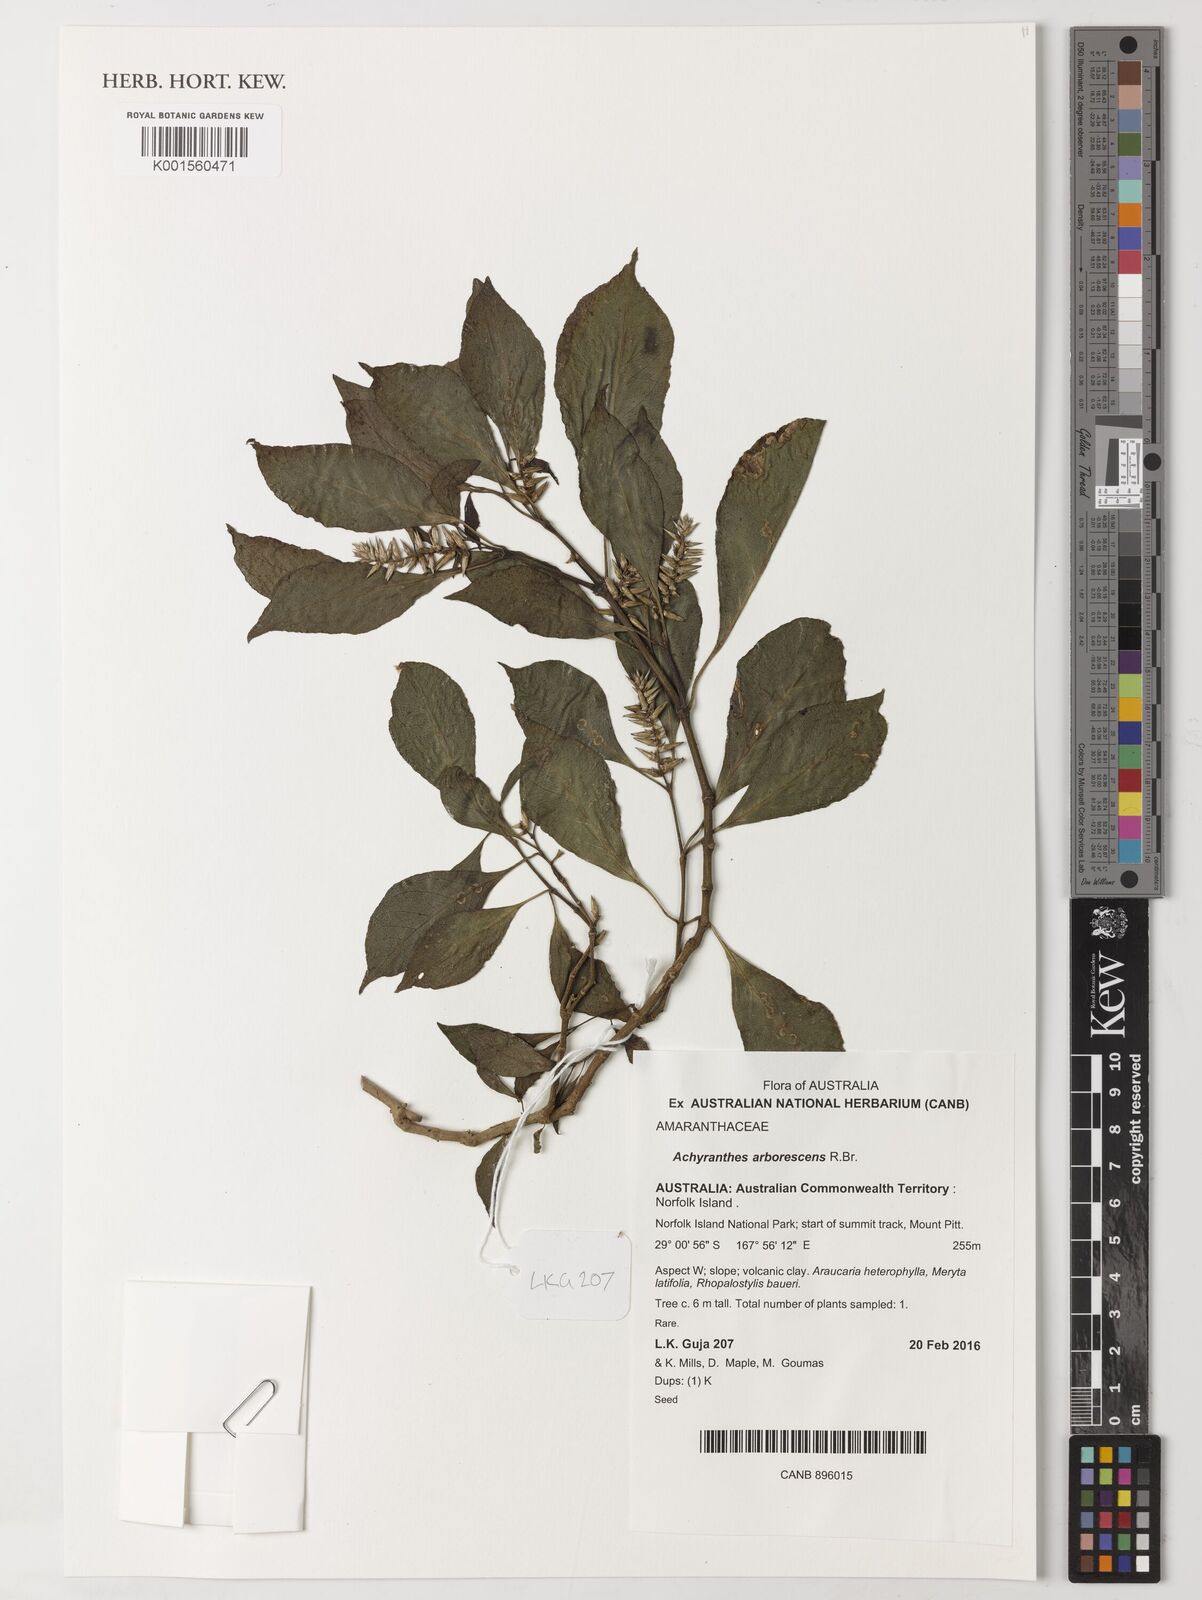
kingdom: Plantae
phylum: Tracheophyta
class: Magnoliopsida
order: Caryophyllales
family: Amaranthaceae
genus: Achyranthes
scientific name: Achyranthes arborescens
